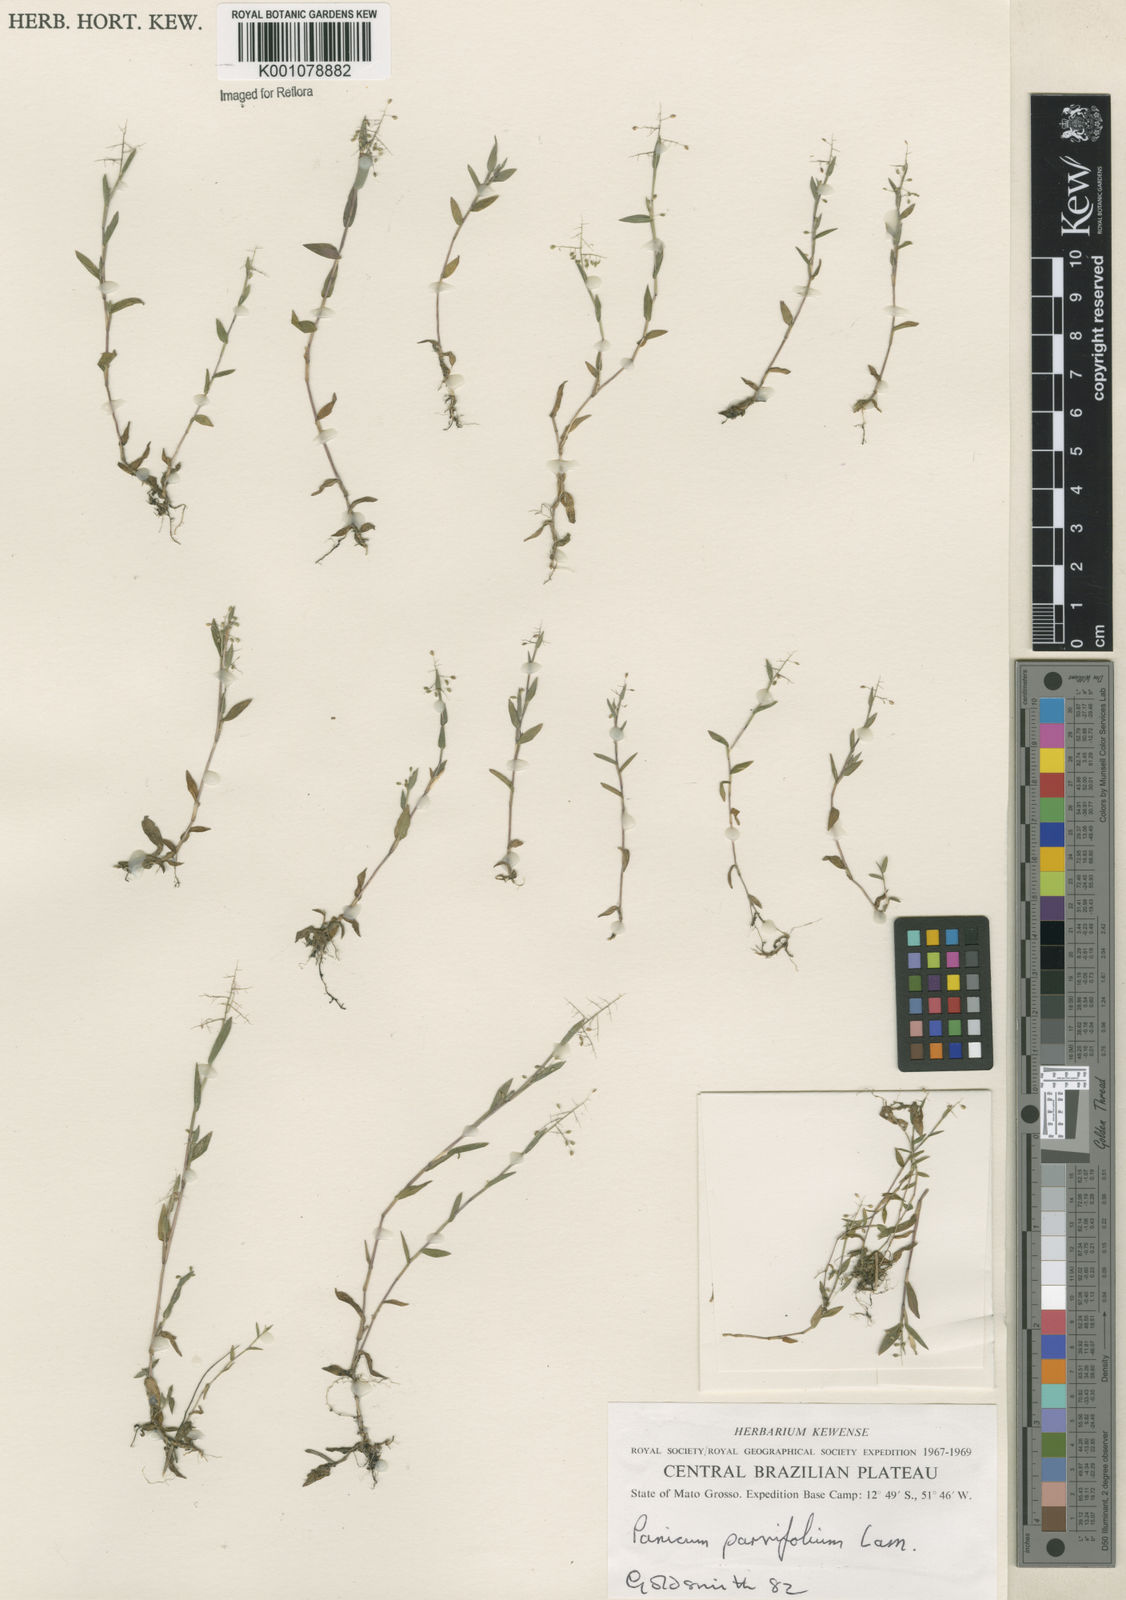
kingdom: Plantae
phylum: Tracheophyta
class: Liliopsida
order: Poales
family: Poaceae
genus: Trichanthecium
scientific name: Trichanthecium parvifolium
